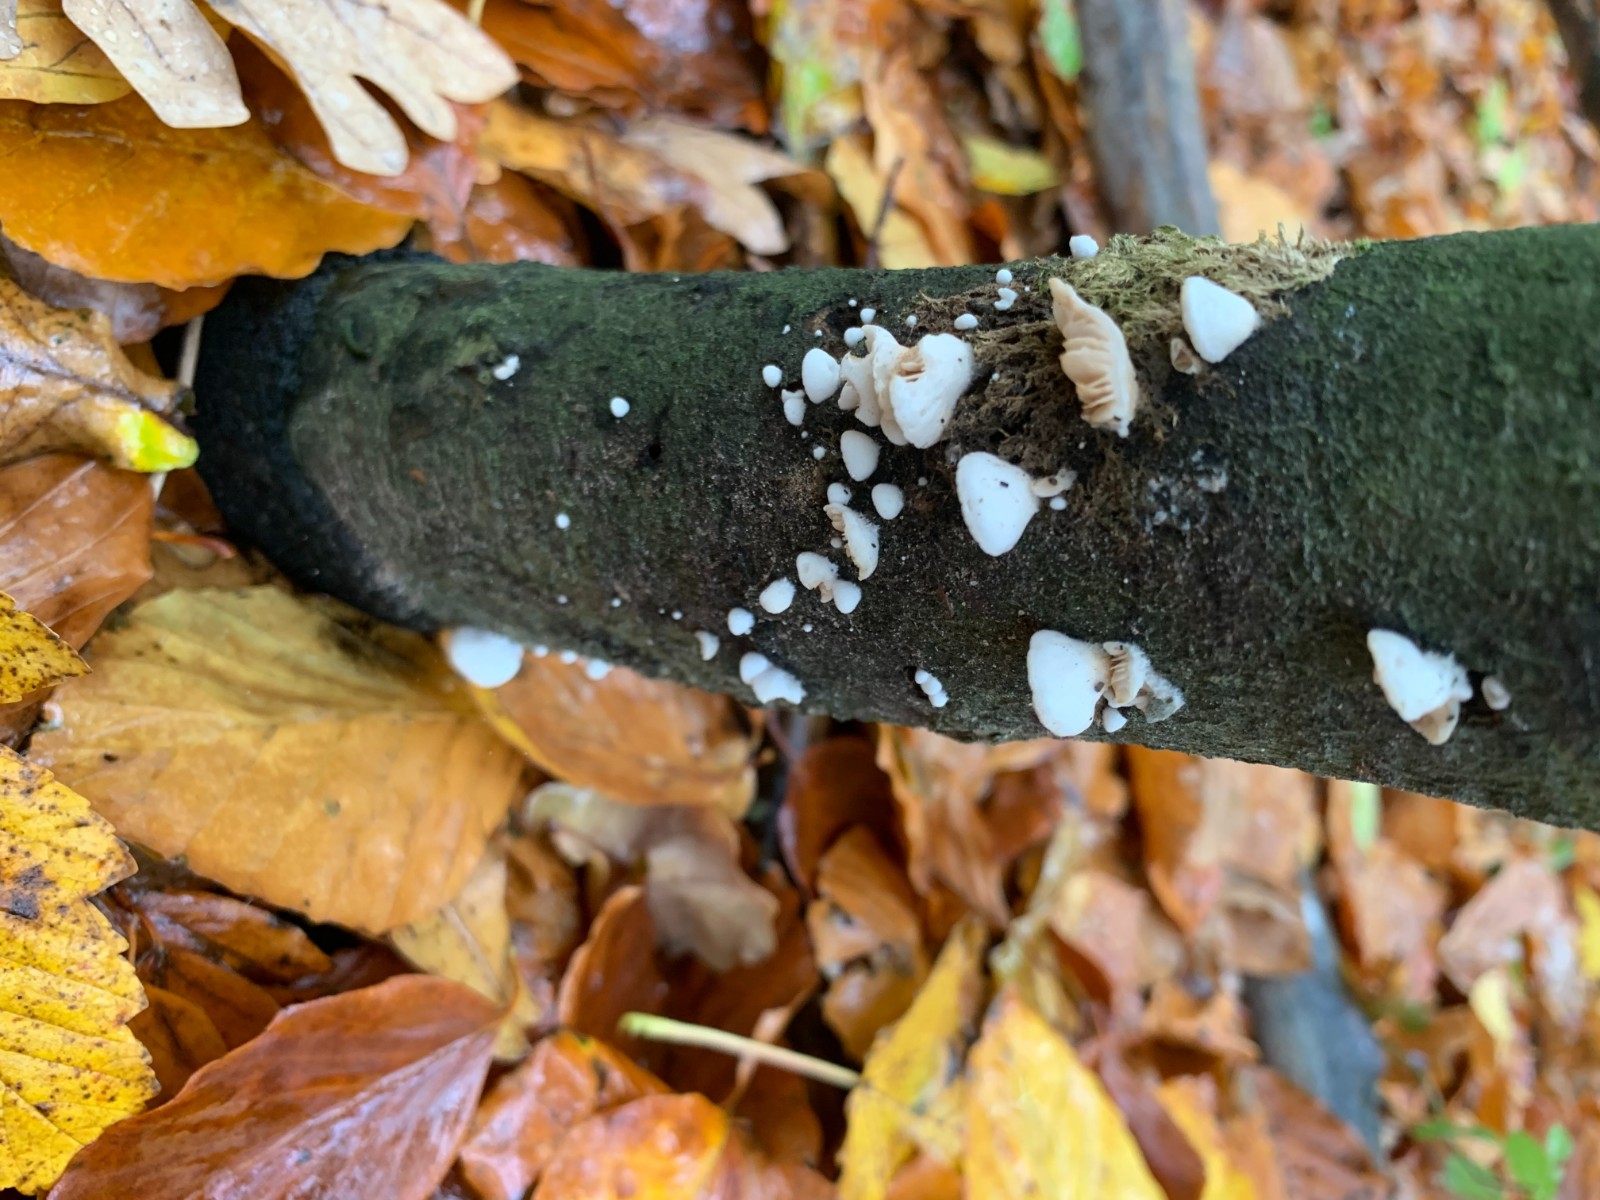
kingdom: Fungi
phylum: Basidiomycota
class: Agaricomycetes
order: Agaricales
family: Crepidotaceae
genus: Crepidotus
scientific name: Crepidotus
